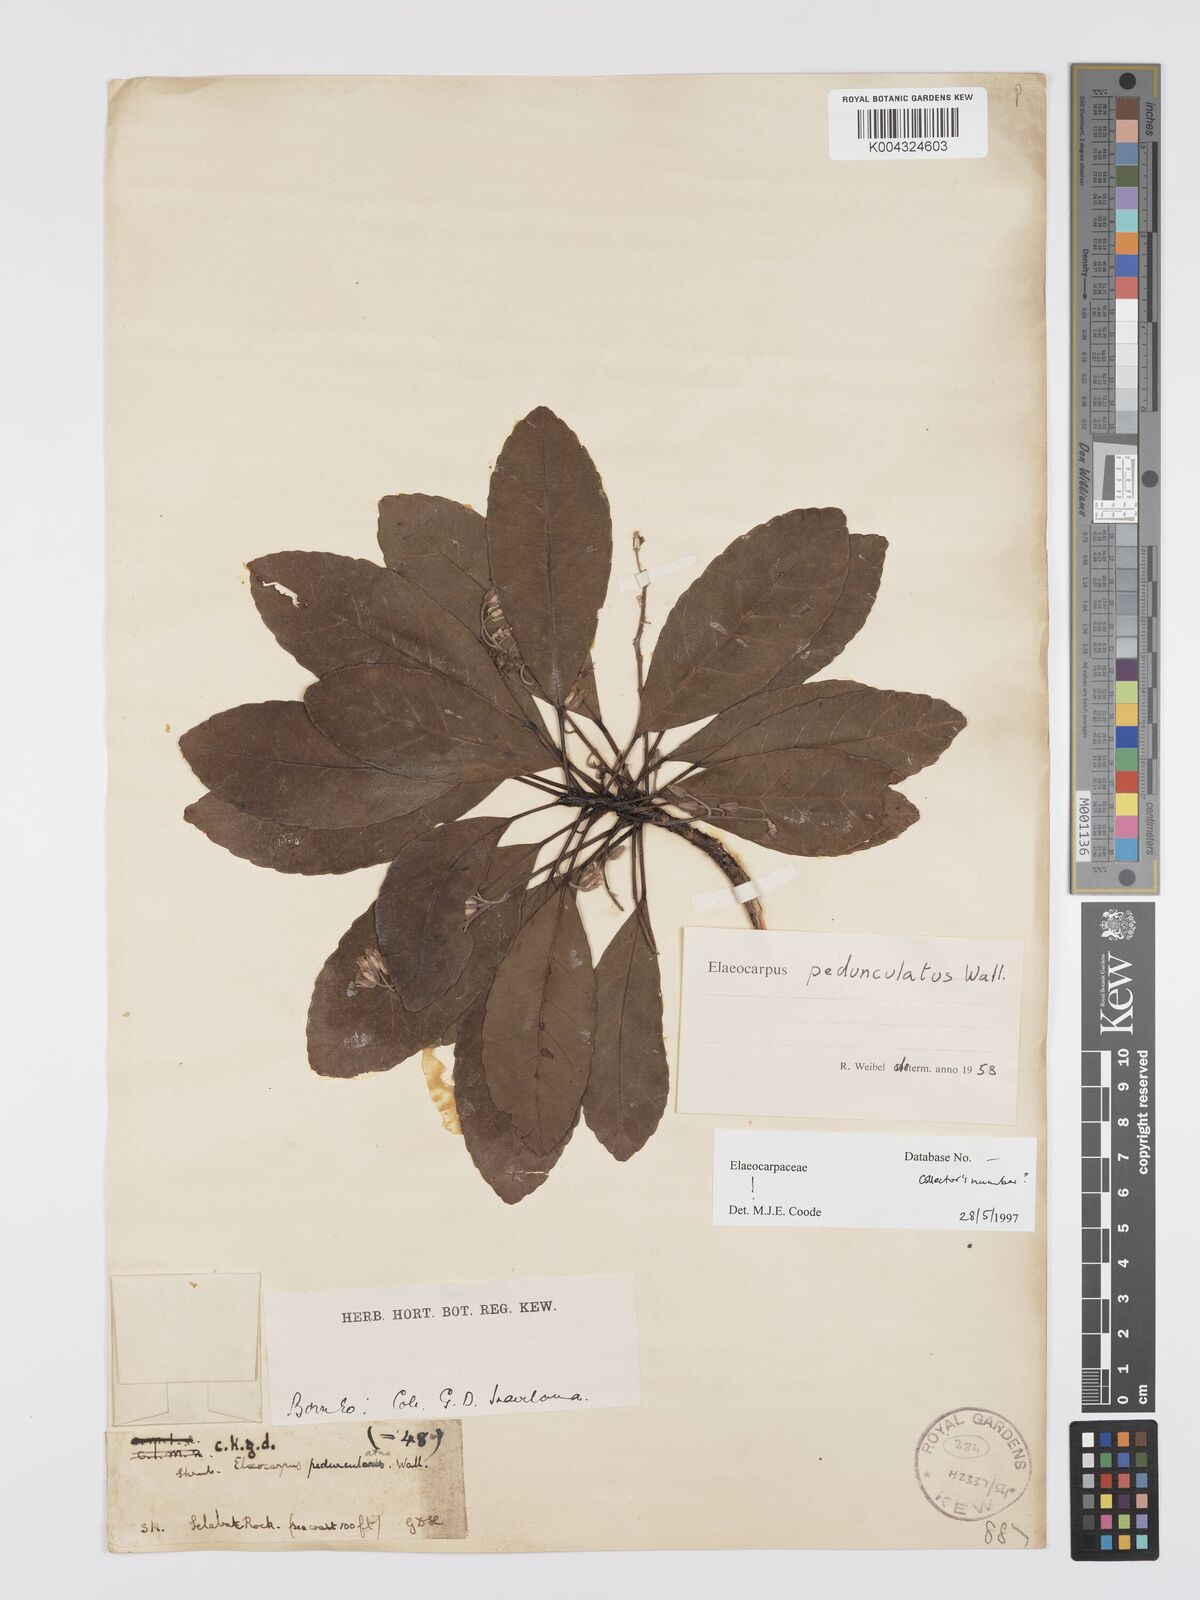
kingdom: Plantae
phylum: Tracheophyta
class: Magnoliopsida
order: Oxalidales
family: Elaeocarpaceae
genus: Elaeocarpus
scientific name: Elaeocarpus pedunculatus
